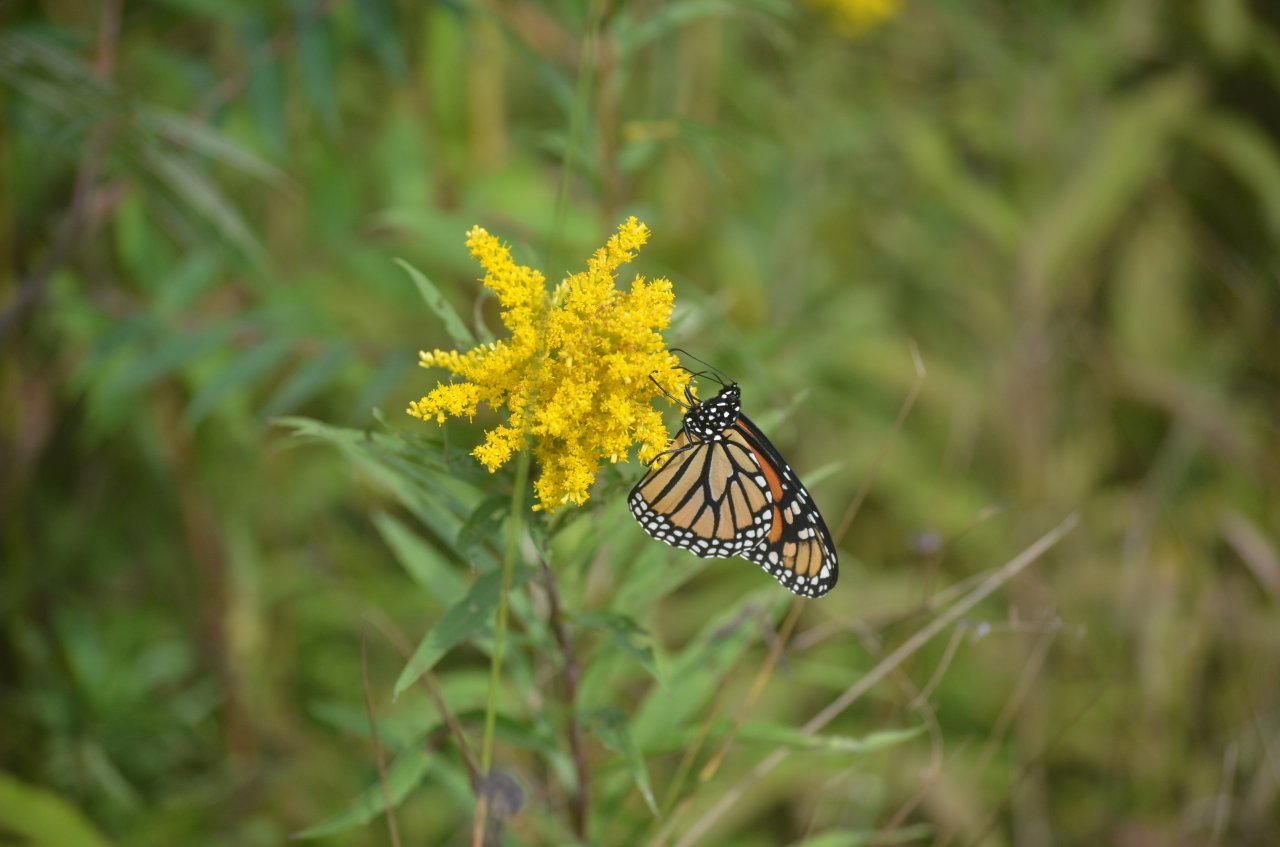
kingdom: Animalia
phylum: Arthropoda
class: Insecta
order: Lepidoptera
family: Nymphalidae
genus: Danaus
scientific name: Danaus plexippus
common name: Monarch
